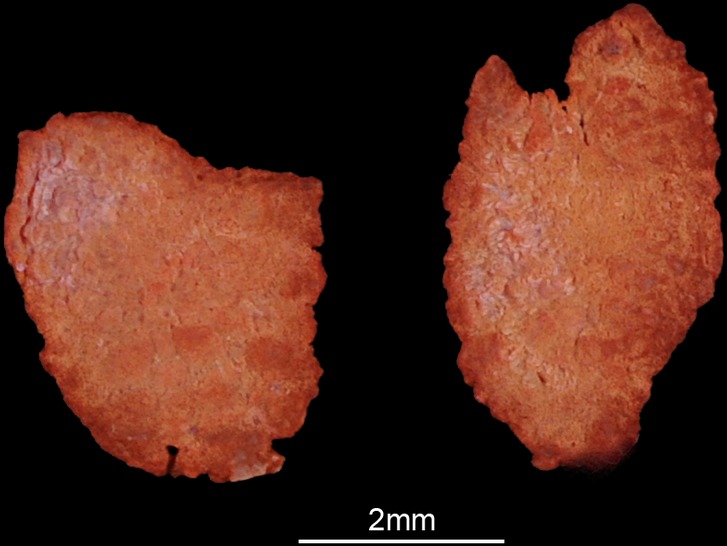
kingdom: Animalia
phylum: Chordata
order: Perciformes
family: Cichlidae
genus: Serranochromis
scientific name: Serranochromis macrocephalus
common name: Purpleface largemouth
